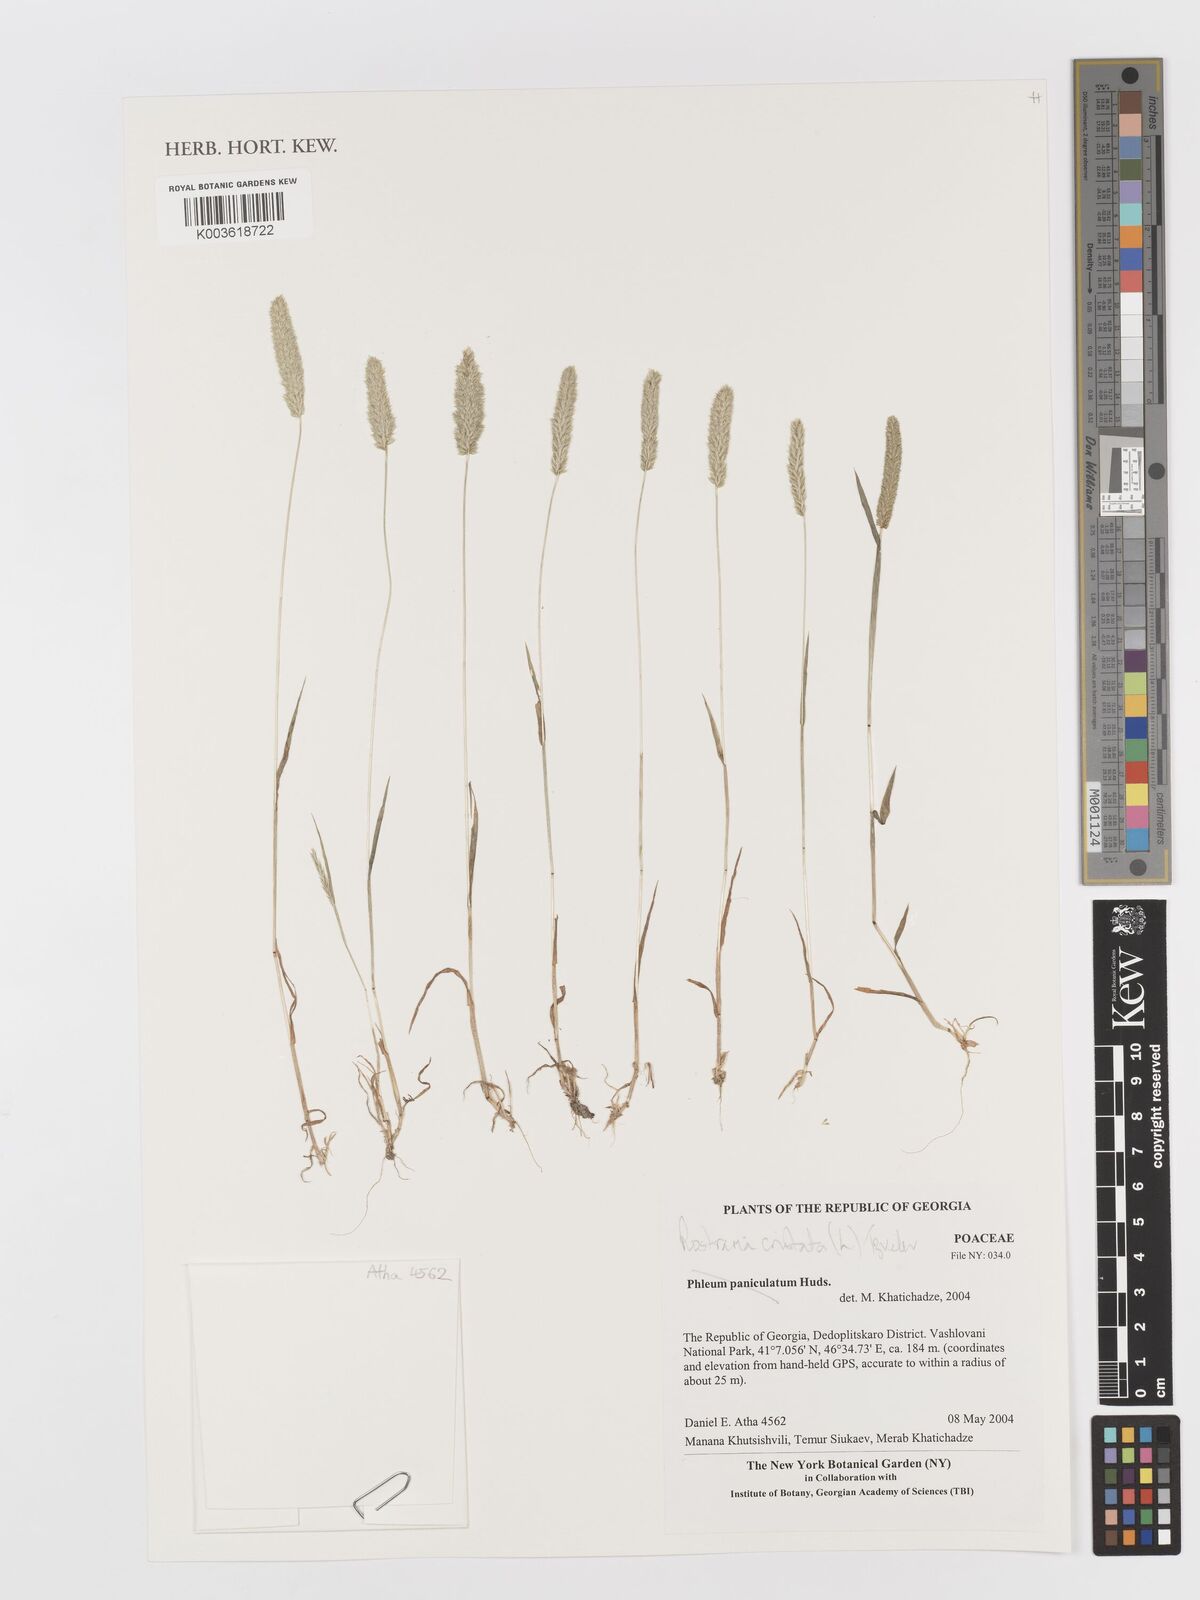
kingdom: Plantae
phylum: Tracheophyta
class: Liliopsida
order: Poales
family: Poaceae
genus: Rostraria
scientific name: Rostraria cristata
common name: Mediterranean hair-grass
